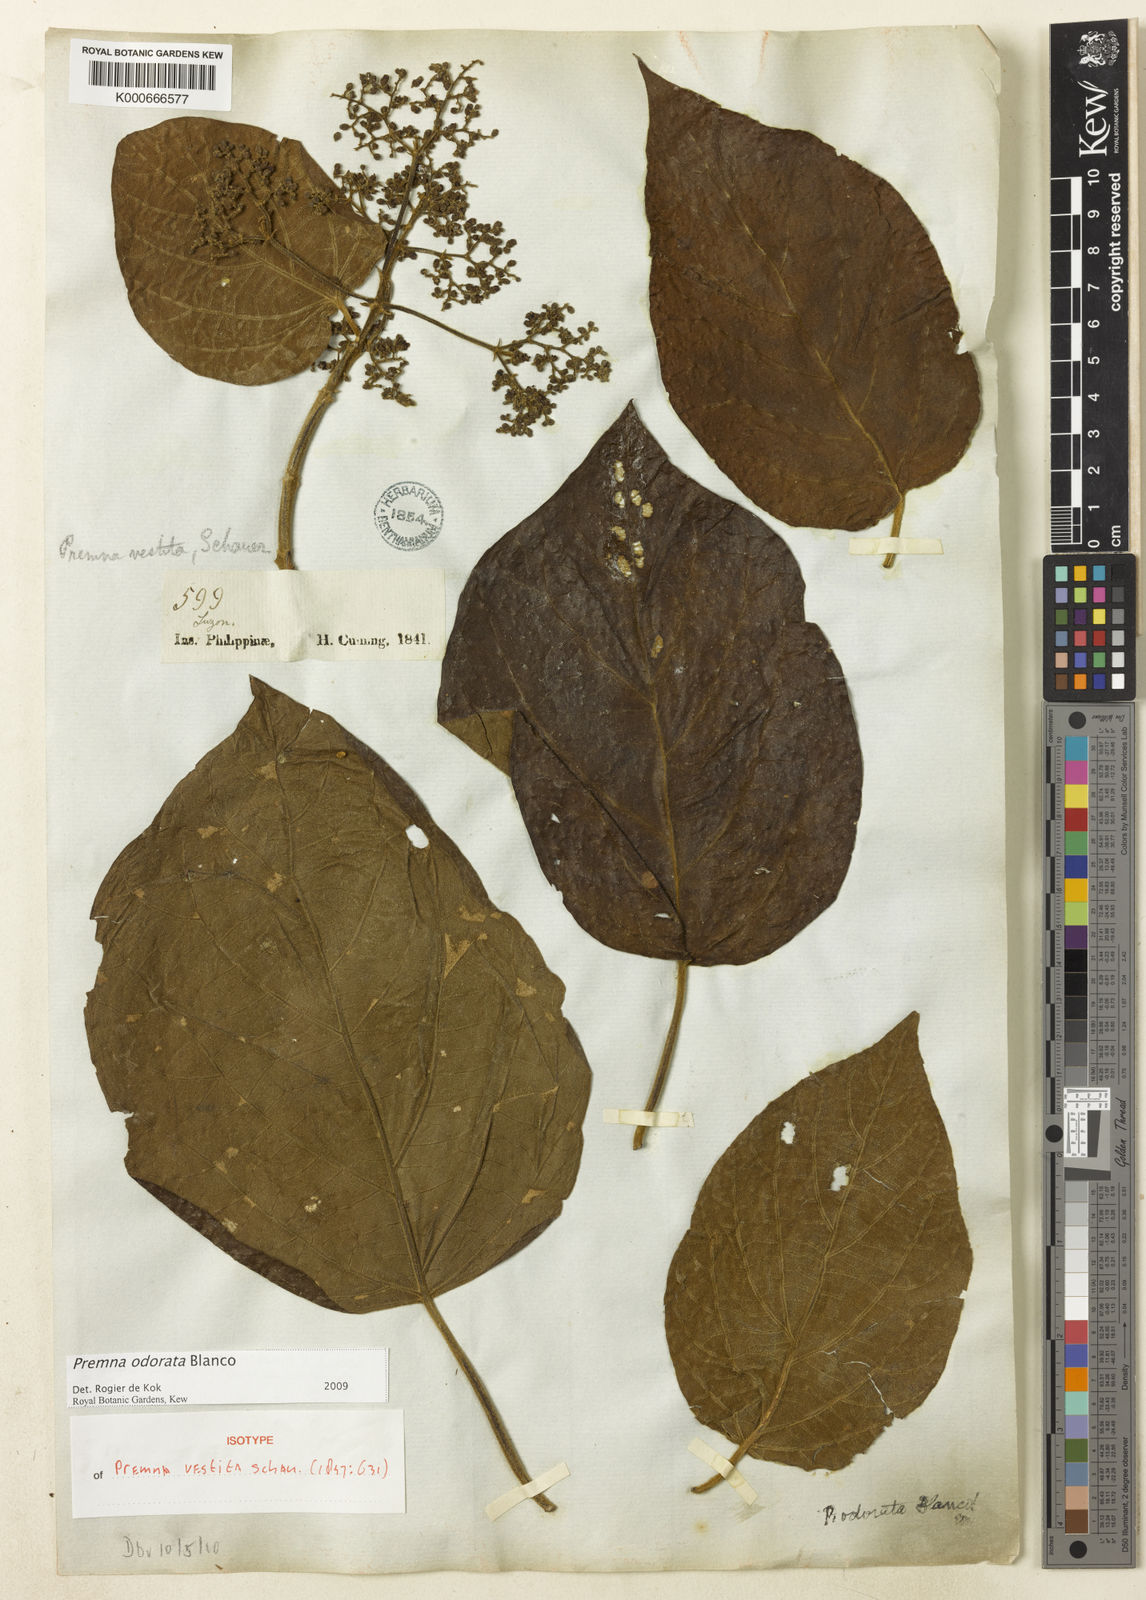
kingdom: Plantae
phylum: Tracheophyta
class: Magnoliopsida
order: Lamiales
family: Lamiaceae
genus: Premna
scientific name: Premna odorata
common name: Fragrant premna
